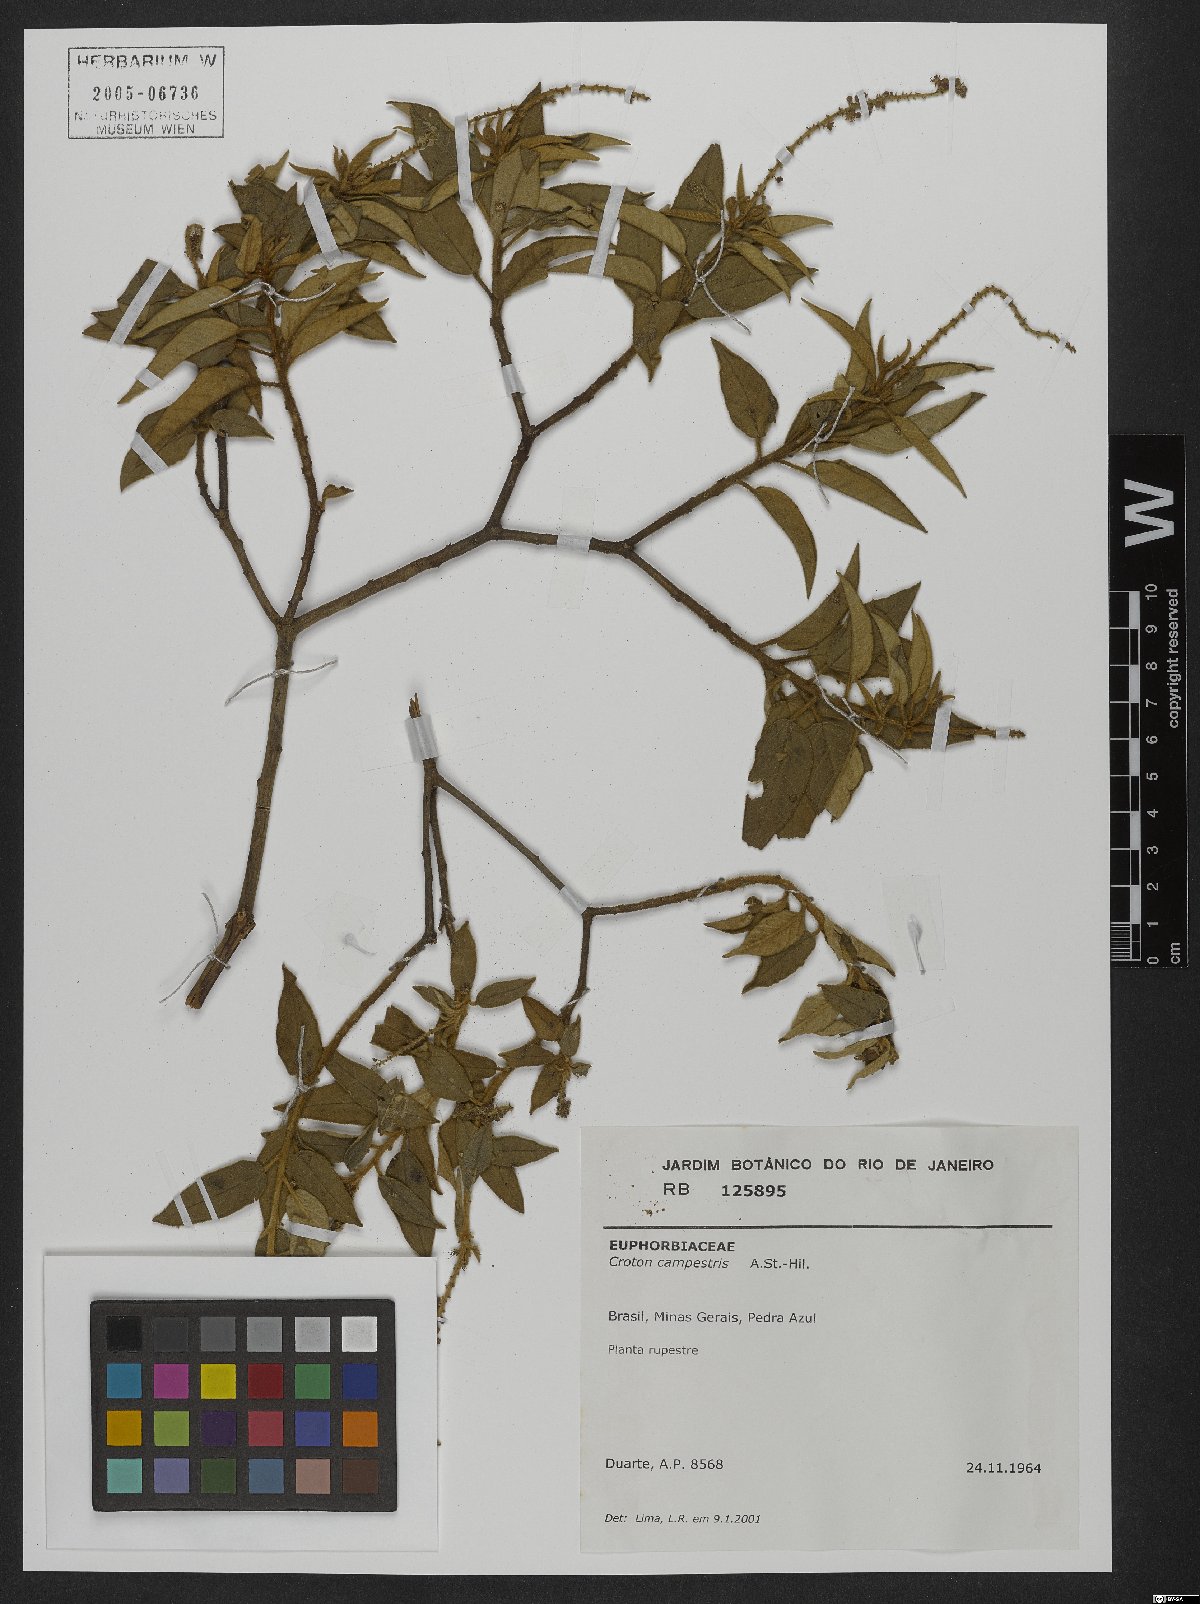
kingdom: Plantae
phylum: Tracheophyta
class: Magnoliopsida
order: Malpighiales
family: Euphorbiaceae
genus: Croton
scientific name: Croton campestris
